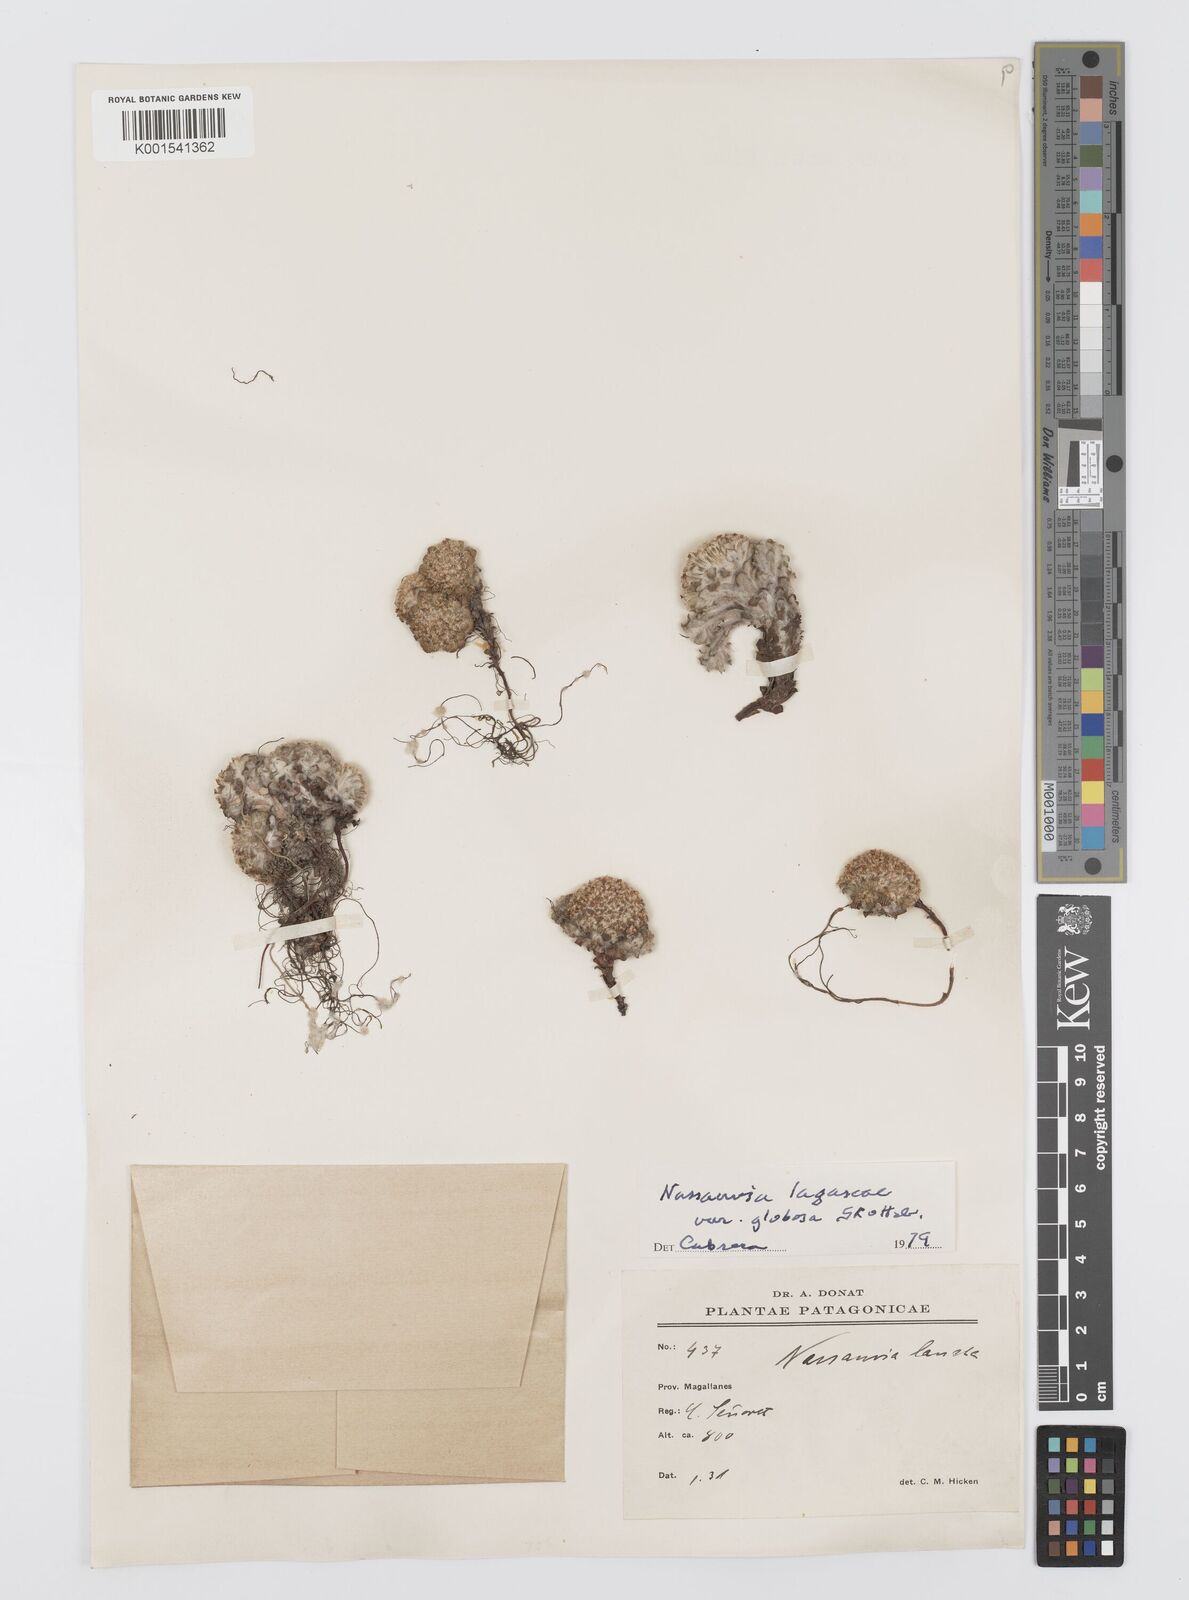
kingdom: Plantae
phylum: Tracheophyta
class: Magnoliopsida
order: Asterales
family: Asteraceae
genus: Nassauvia
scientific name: Nassauvia lagascae
